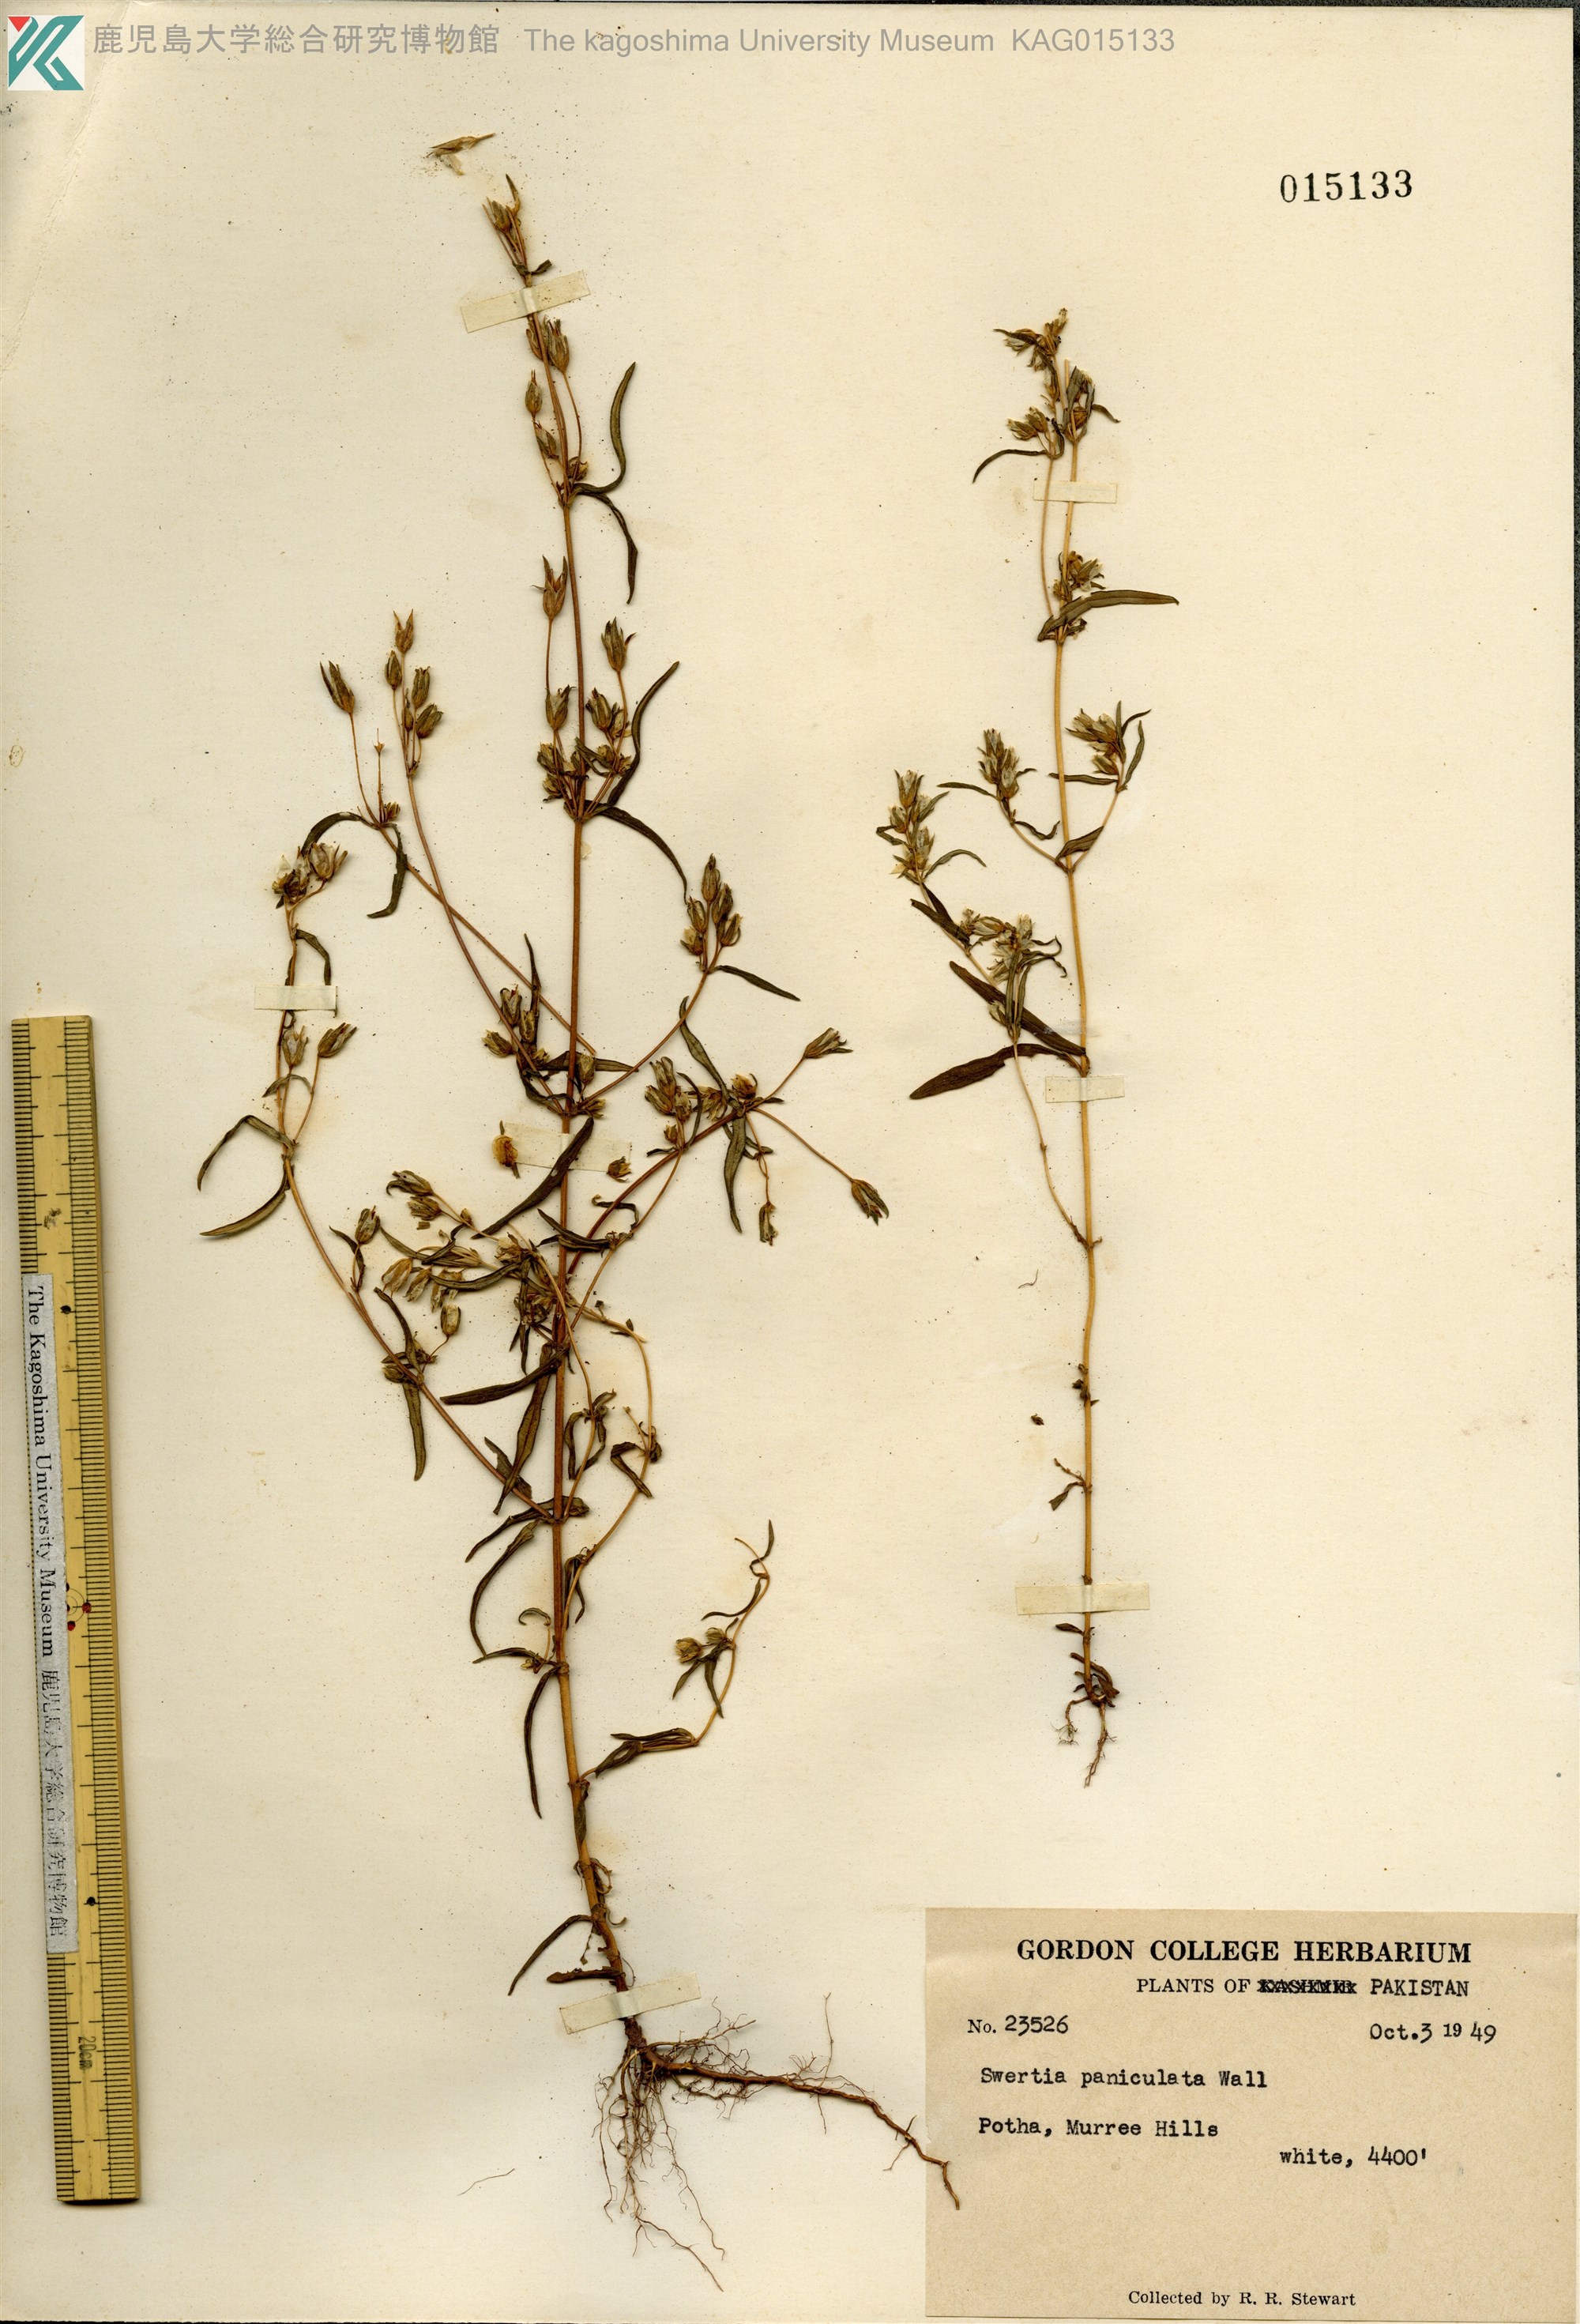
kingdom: Plantae
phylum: Tracheophyta
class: Magnoliopsida
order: Gentianales
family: Gentianaceae
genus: Swertia
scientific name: Swertia paniculata
